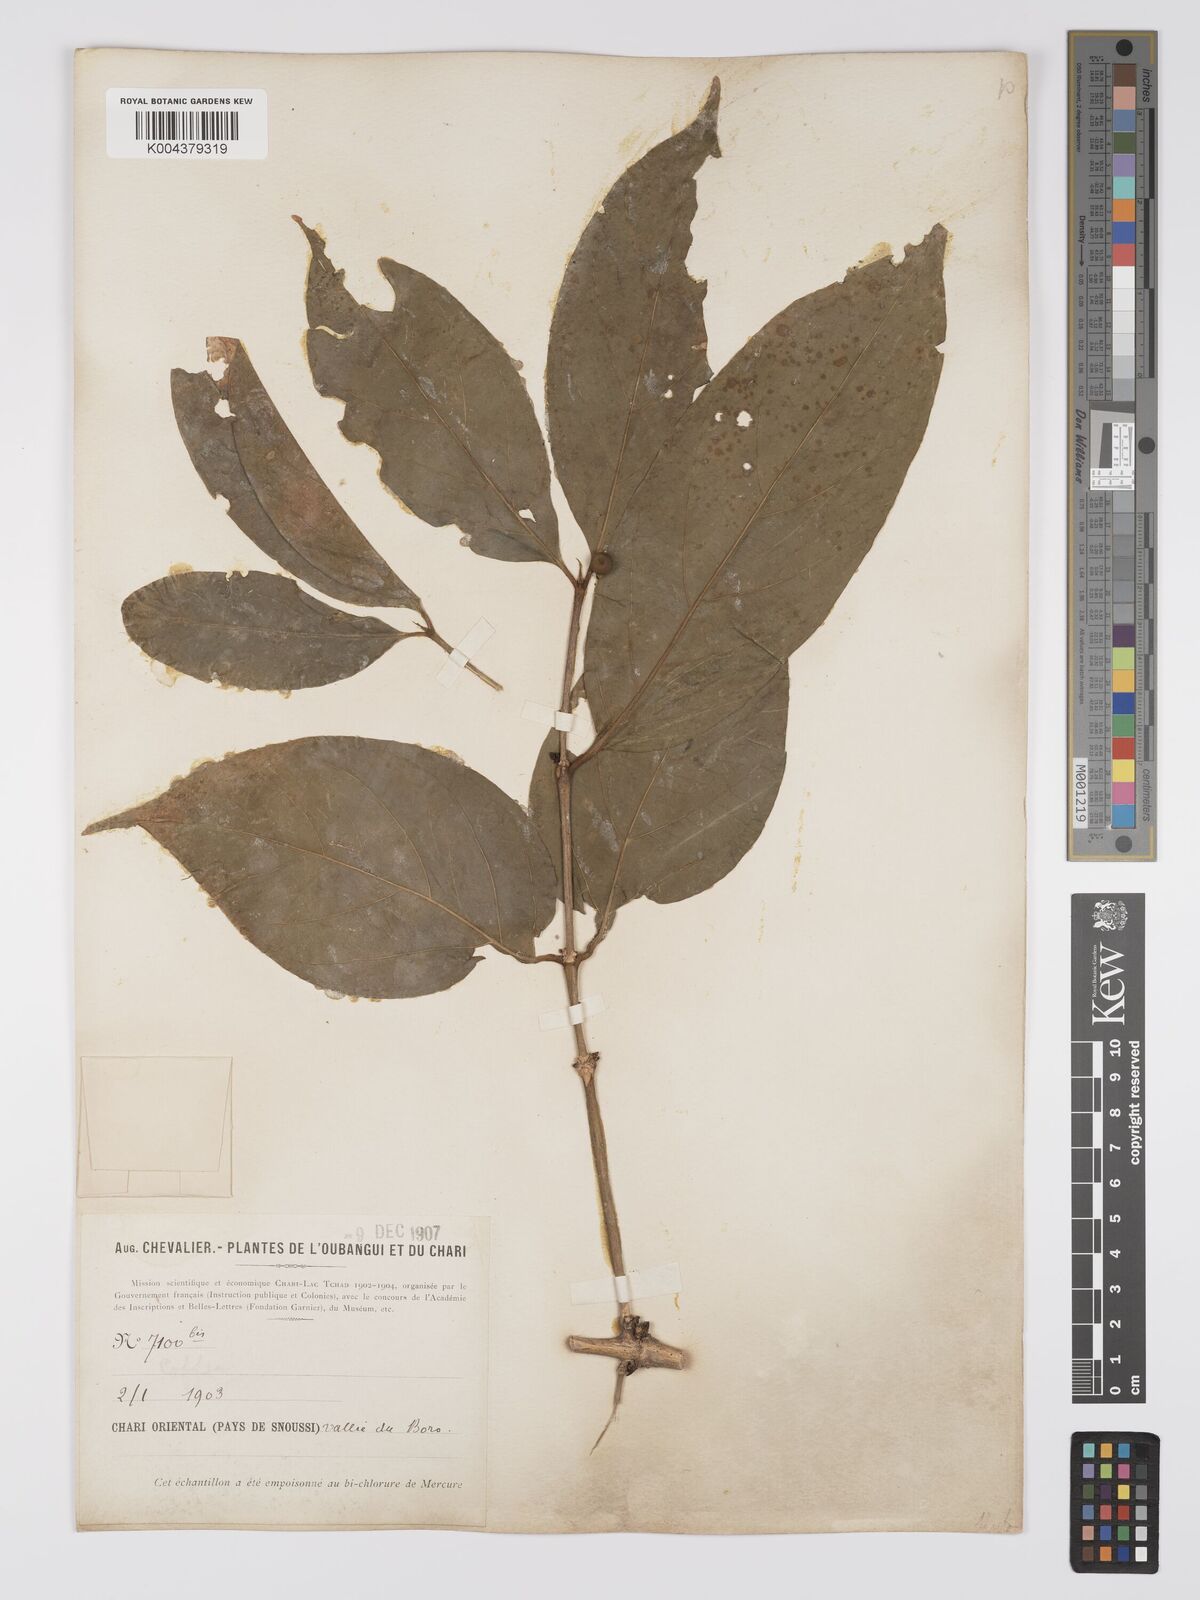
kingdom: Plantae
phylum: Tracheophyta
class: Magnoliopsida
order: Gentianales
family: Rubiaceae
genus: Belonophora
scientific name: Belonophora coffeoides
